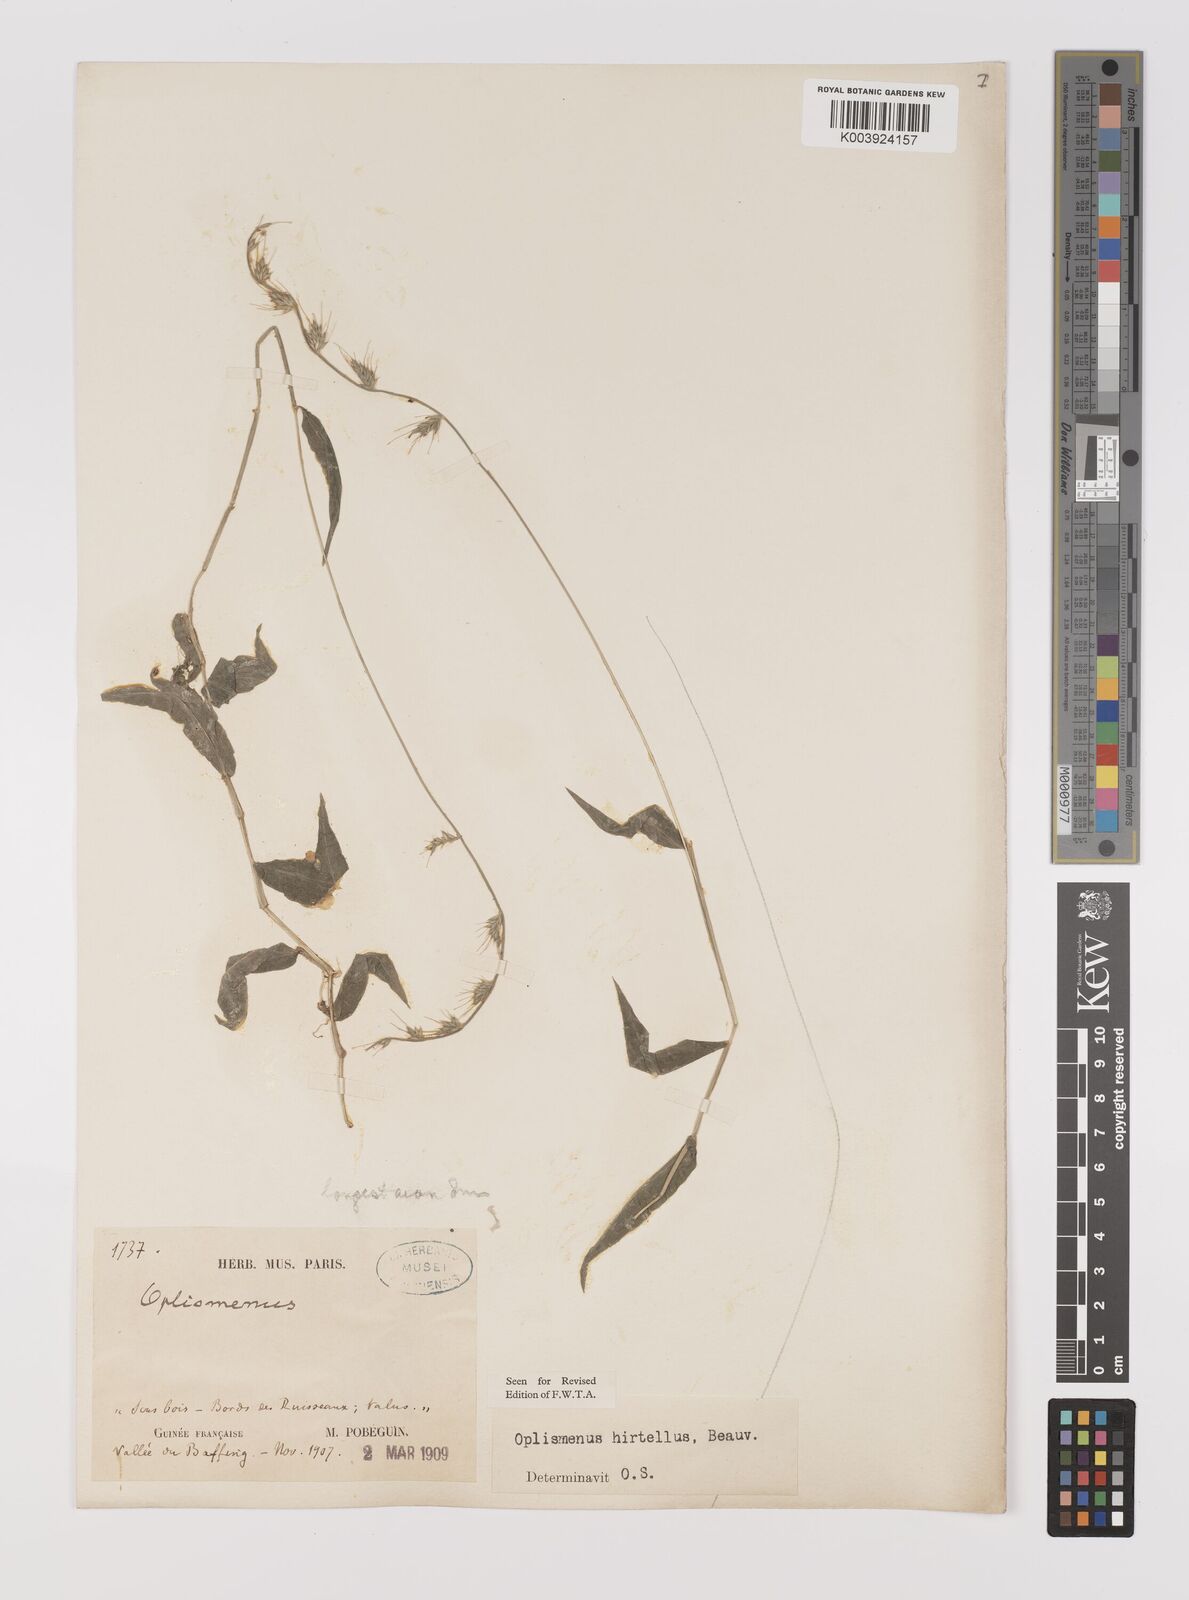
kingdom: Plantae
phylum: Tracheophyta
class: Liliopsida
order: Poales
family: Poaceae
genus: Oplismenus
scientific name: Oplismenus hirtellus
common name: Basketgrass
